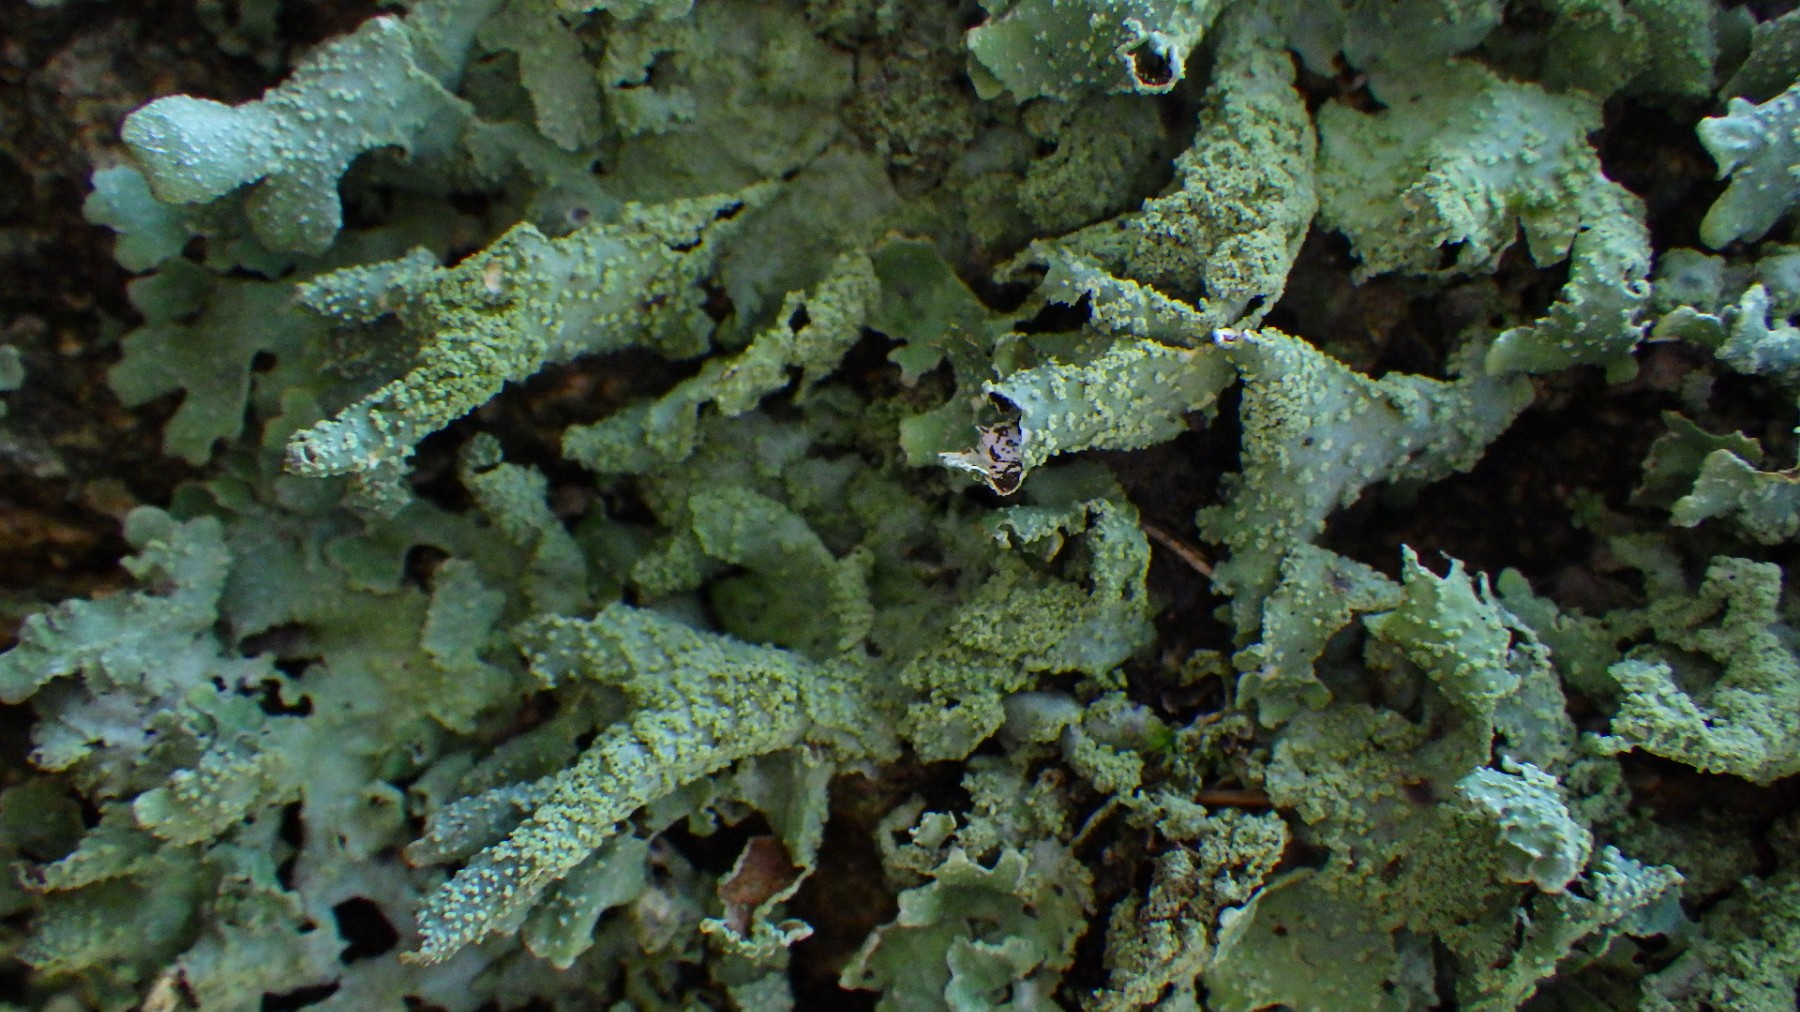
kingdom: Fungi
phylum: Ascomycota
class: Lecanoromycetes
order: Lecanorales
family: Parmeliaceae
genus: Parmelia
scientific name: Parmelia submontana
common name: langlobet skållav
